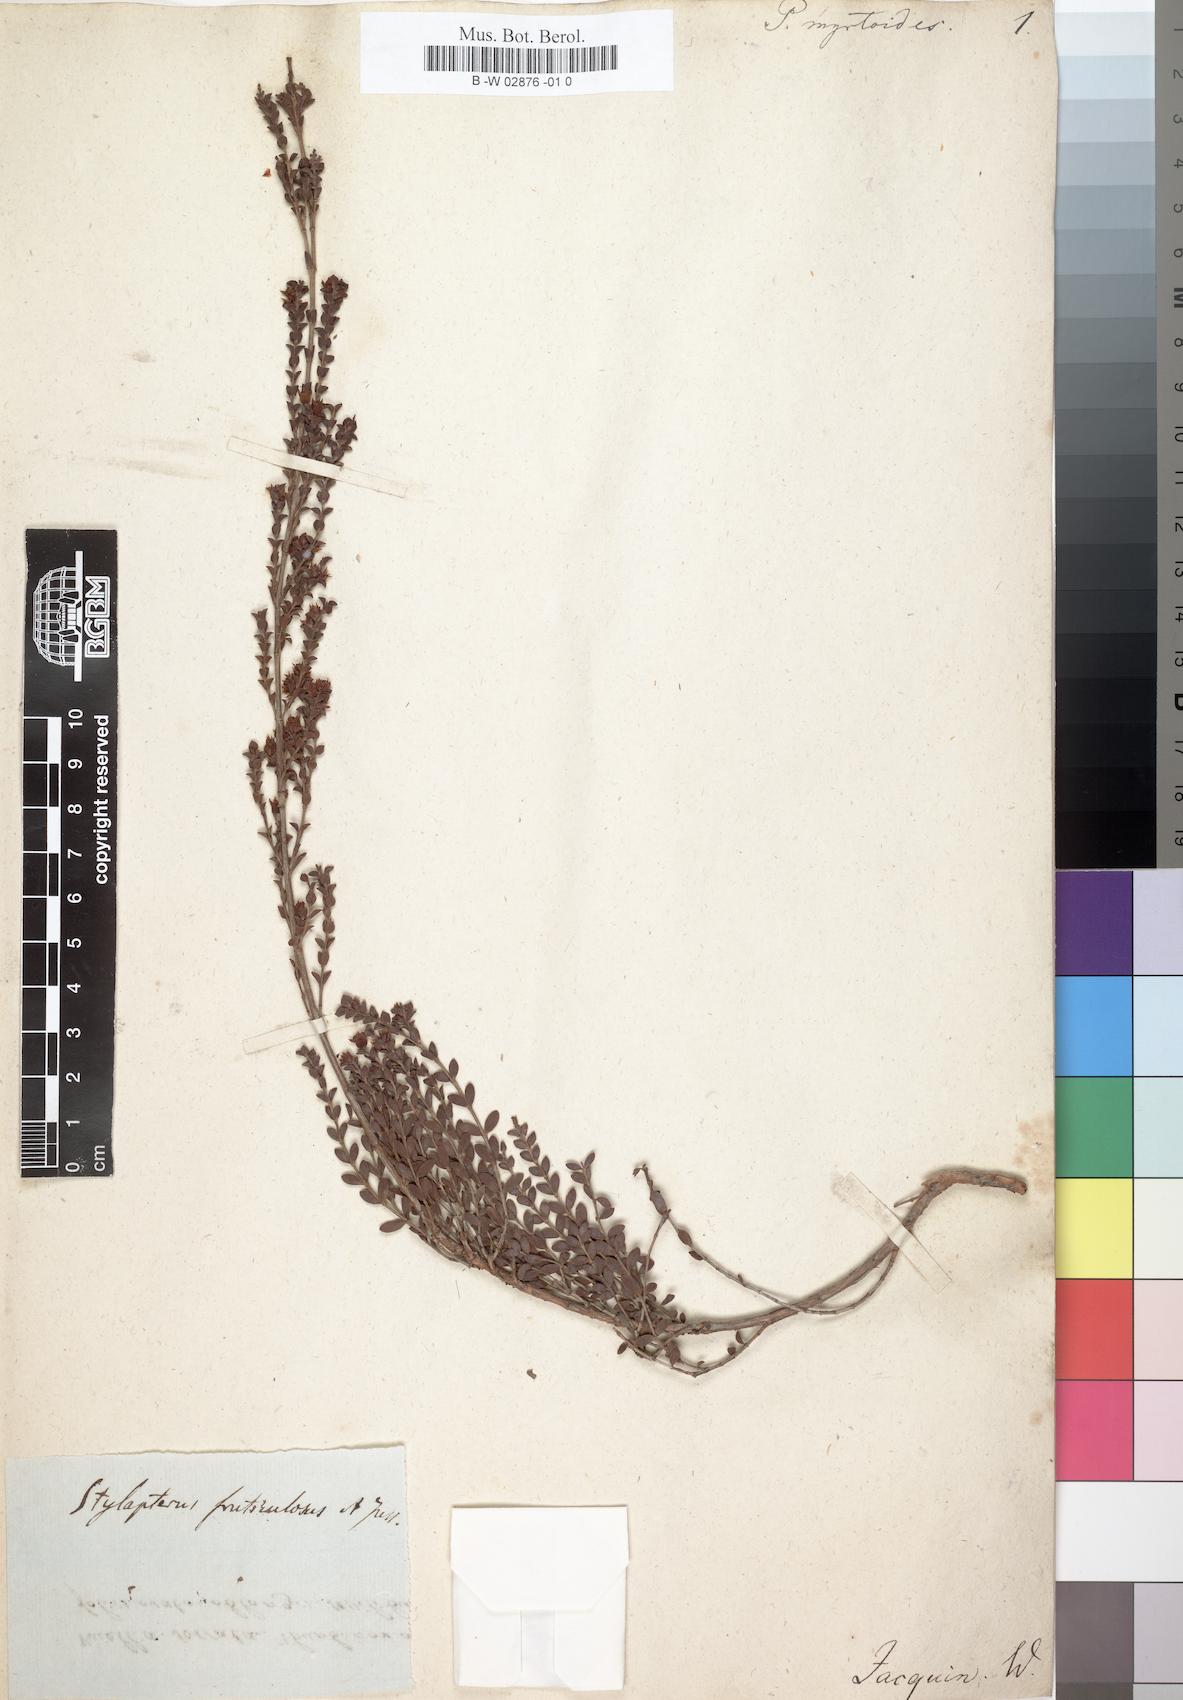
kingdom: Plantae
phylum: Tracheophyta
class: Magnoliopsida
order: Myrtales
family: Penaeaceae
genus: Penaea
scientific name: Penaea cneorum
